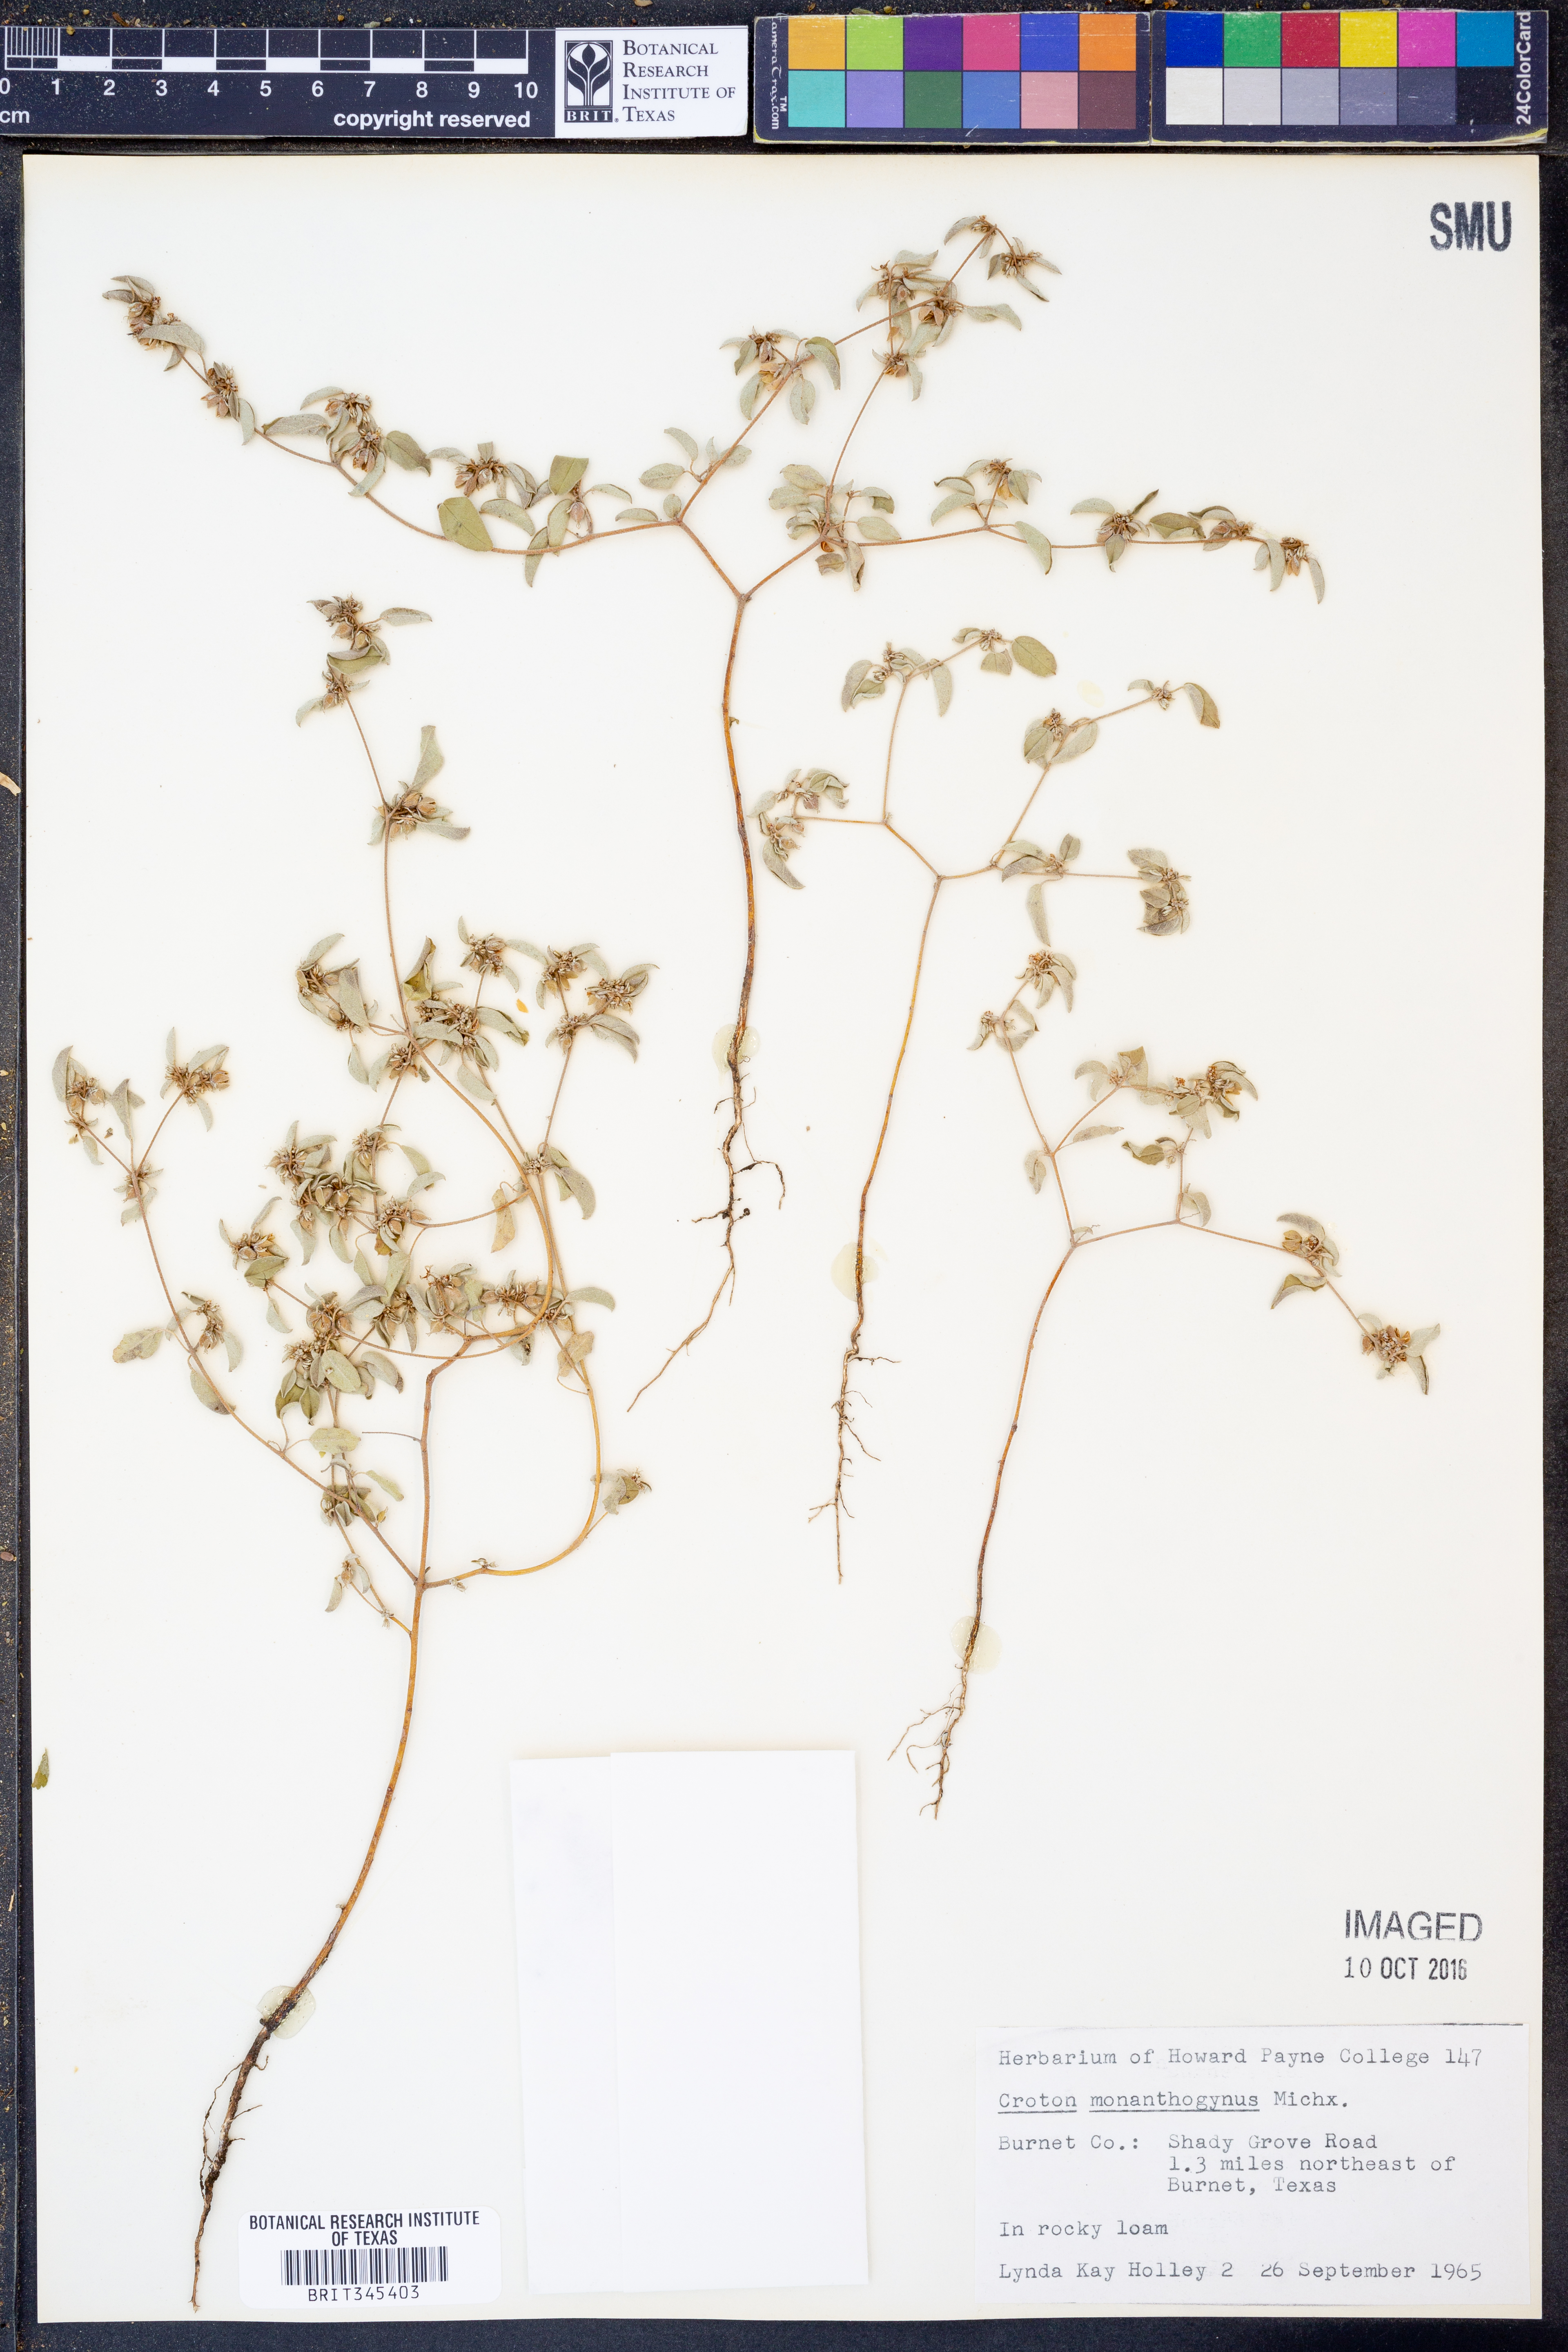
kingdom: Plantae
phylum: Tracheophyta
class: Magnoliopsida
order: Malpighiales
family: Euphorbiaceae
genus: Croton
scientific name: Croton monanthogynus
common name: One-seed croton
